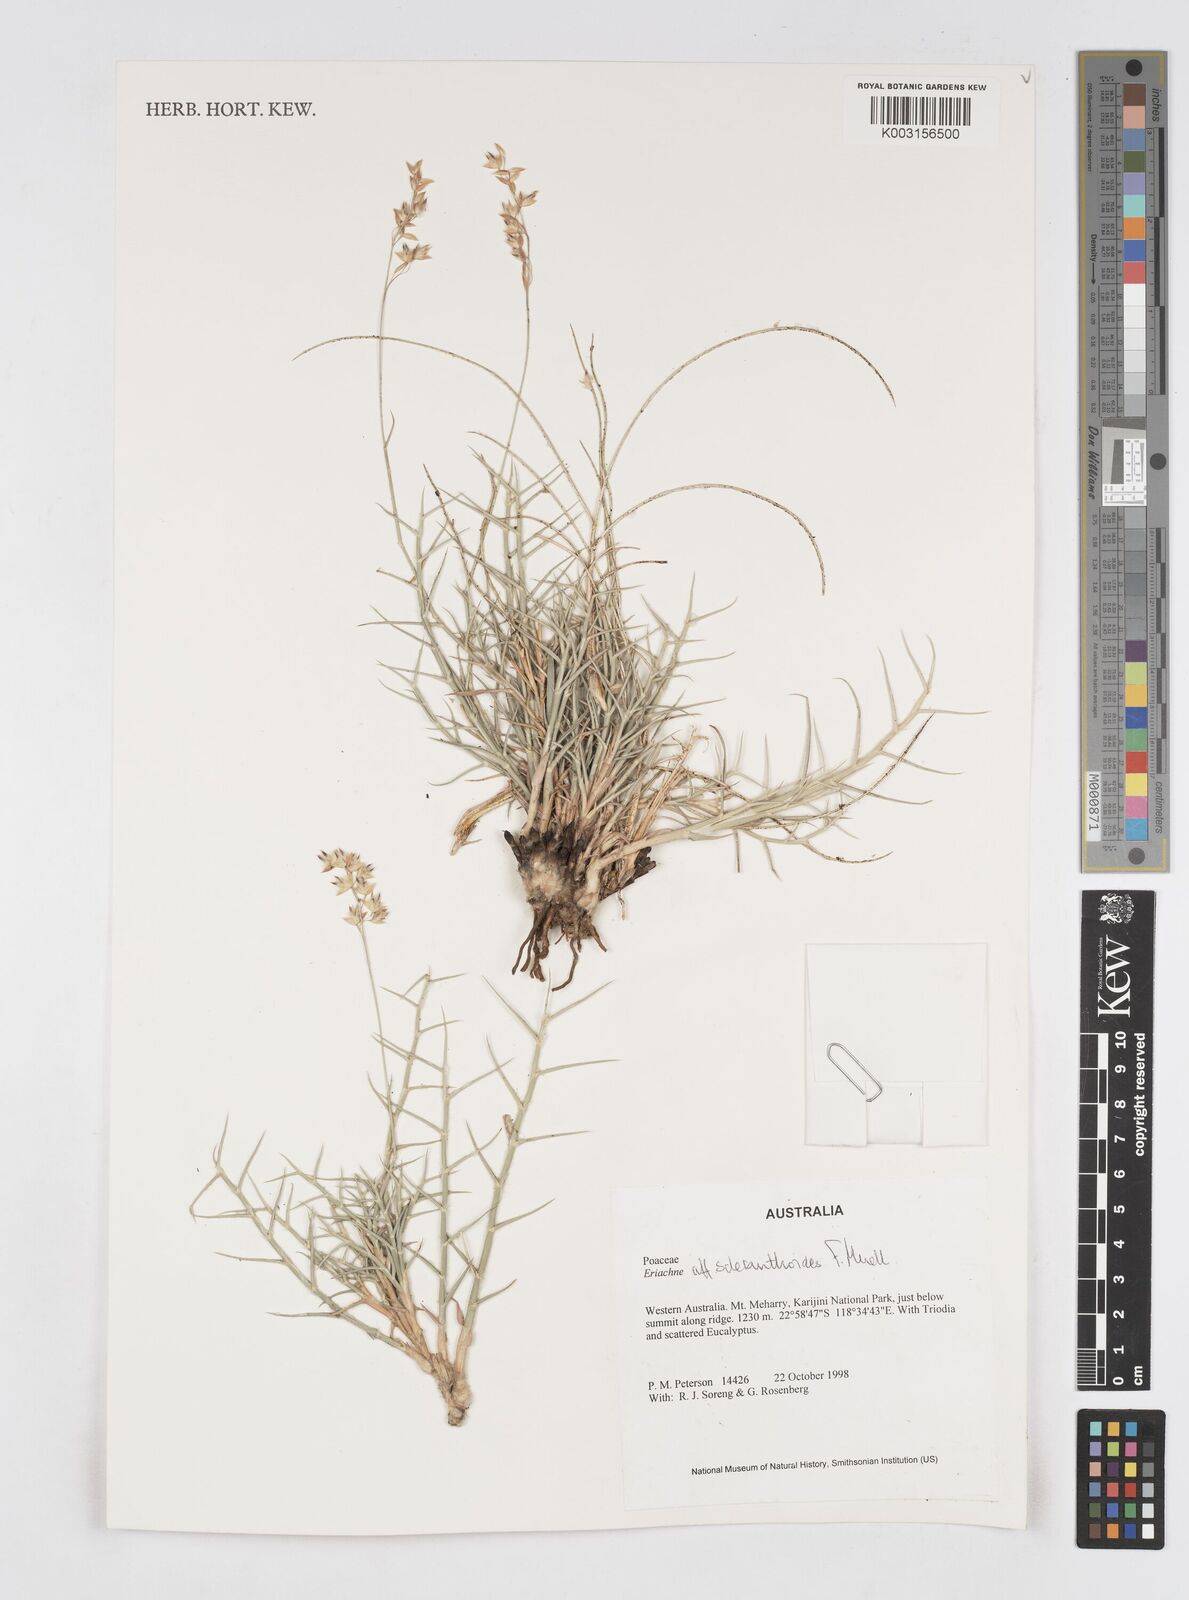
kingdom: Plantae
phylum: Tracheophyta
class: Liliopsida
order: Poales
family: Poaceae
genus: Eriachne
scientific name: Eriachne scleranthoides
